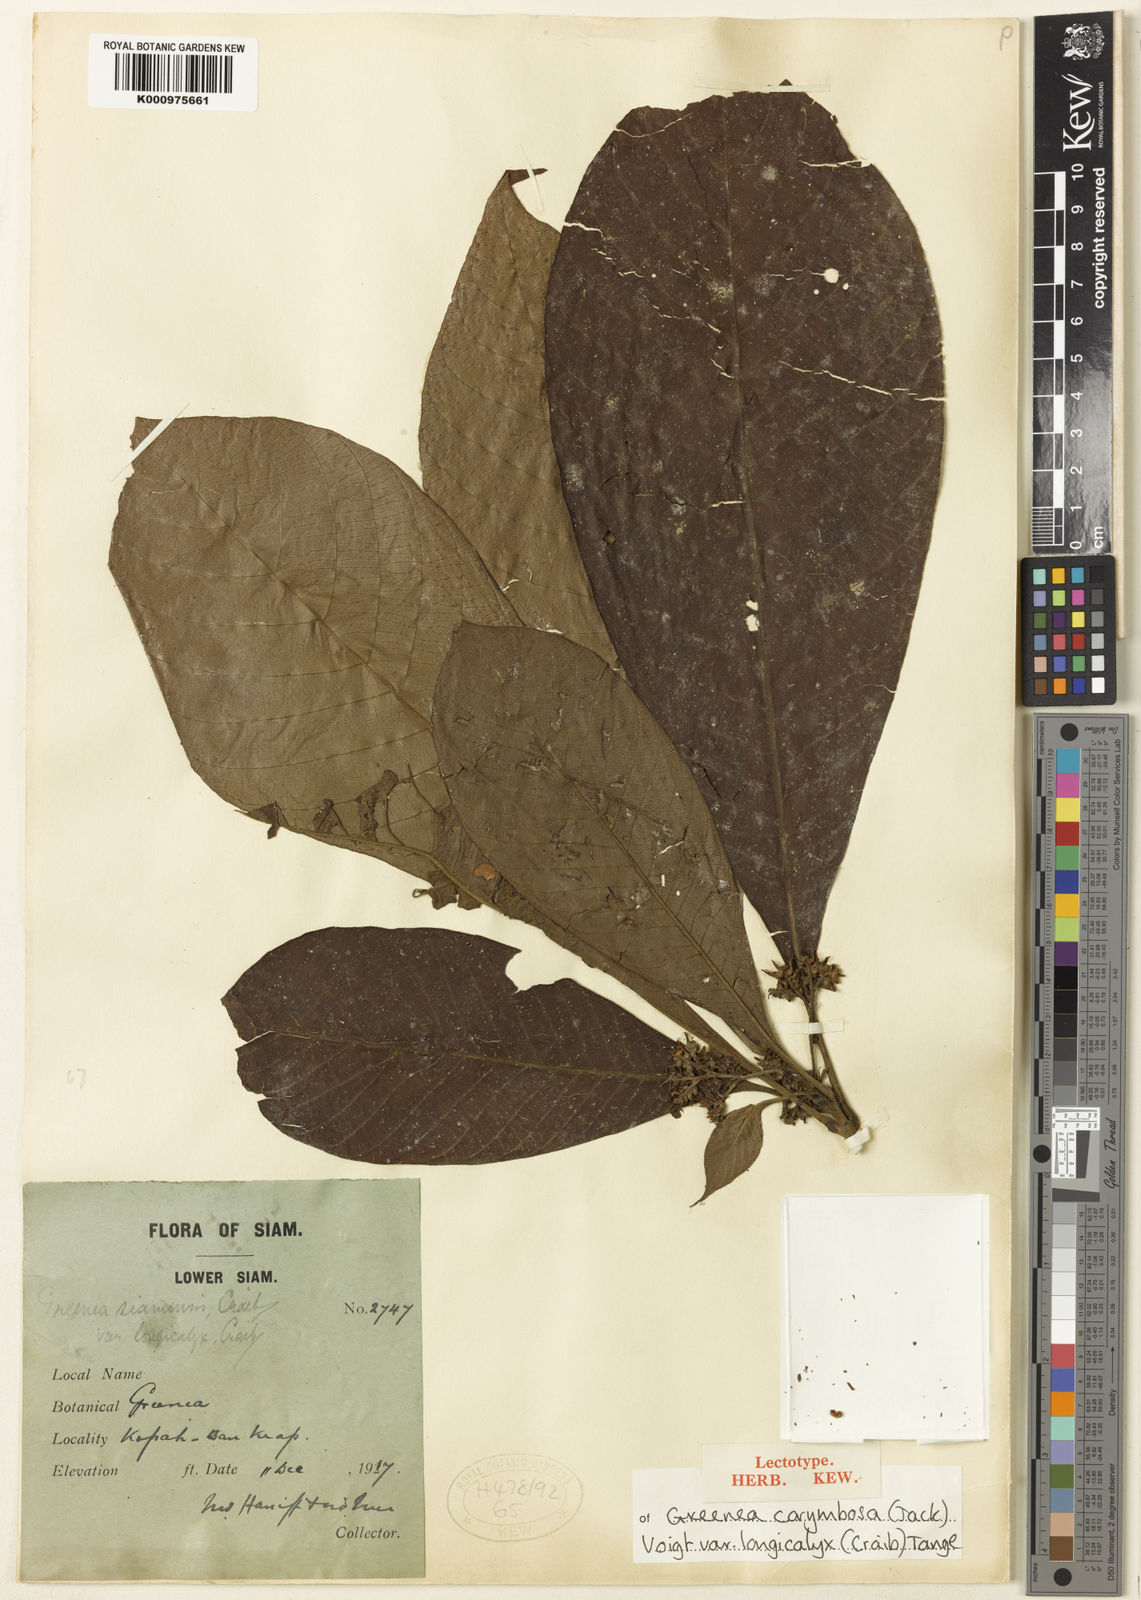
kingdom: Plantae
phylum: Tracheophyta
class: Magnoliopsida
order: Gentianales
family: Rubiaceae
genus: Greenea
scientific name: Greenea corymbosa
